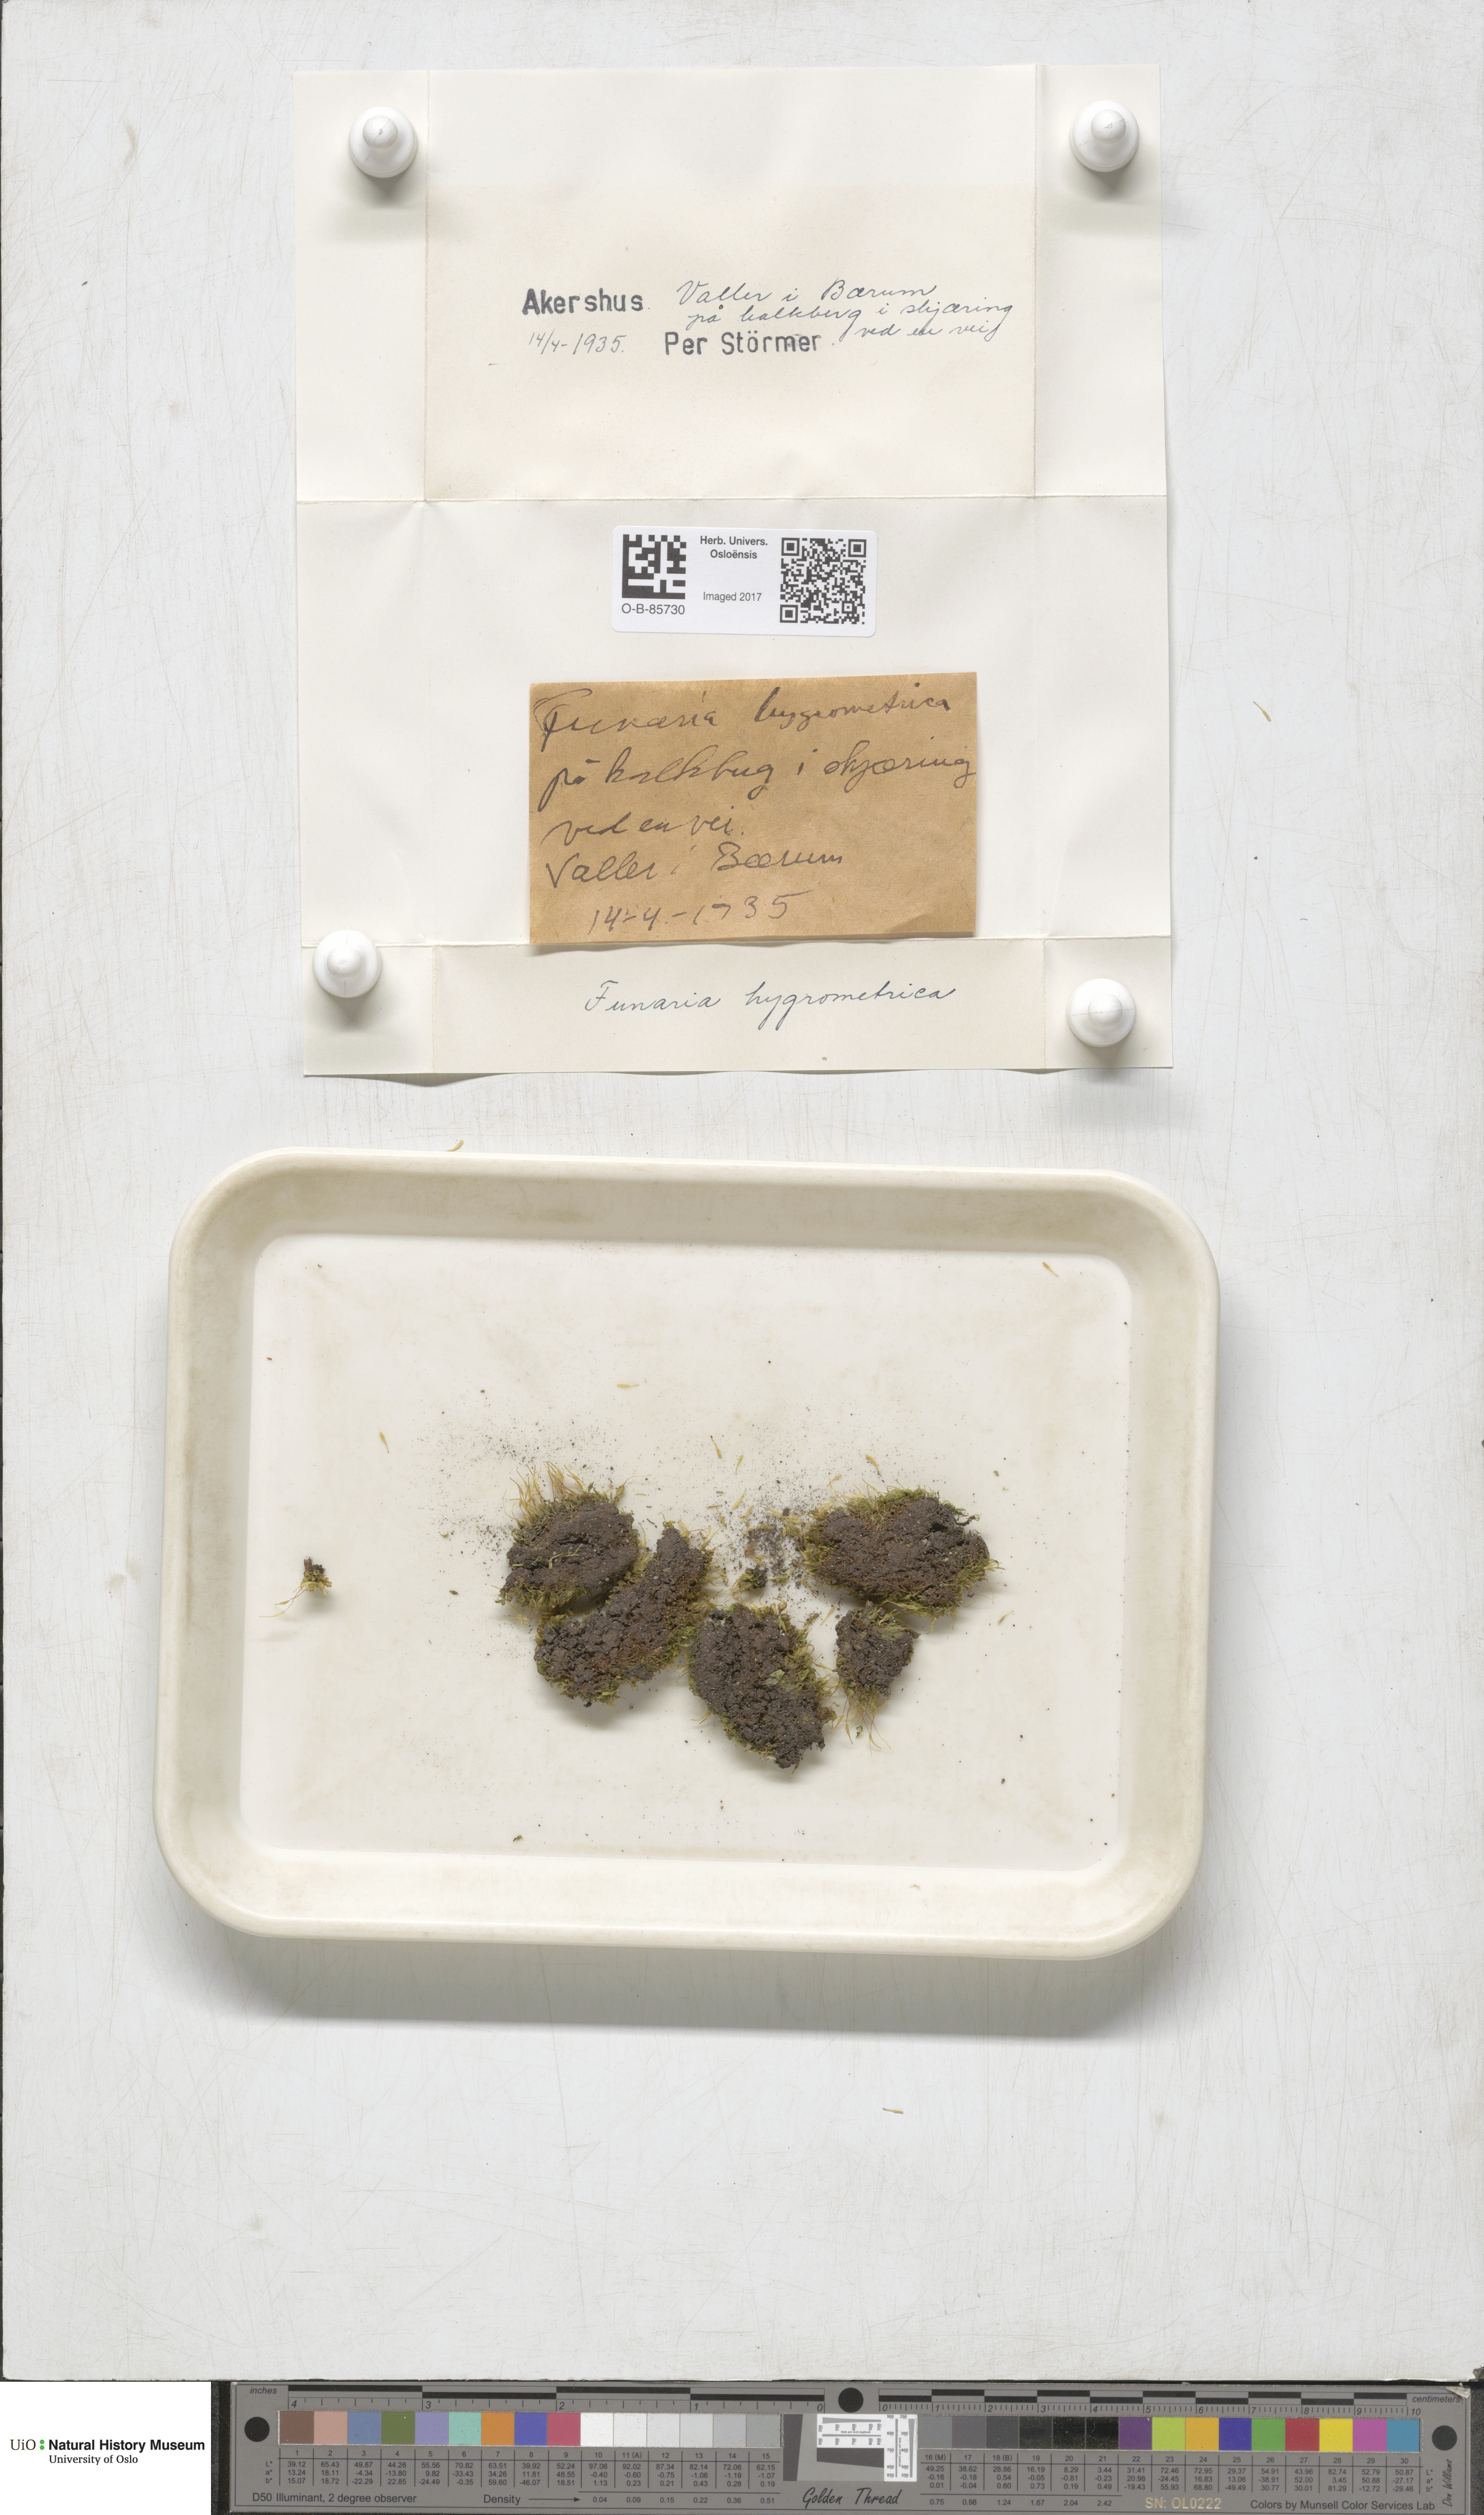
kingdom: Plantae
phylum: Bryophyta
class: Bryopsida
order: Funariales
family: Funariaceae
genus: Funaria
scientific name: Funaria hygrometrica
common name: Common cord moss
